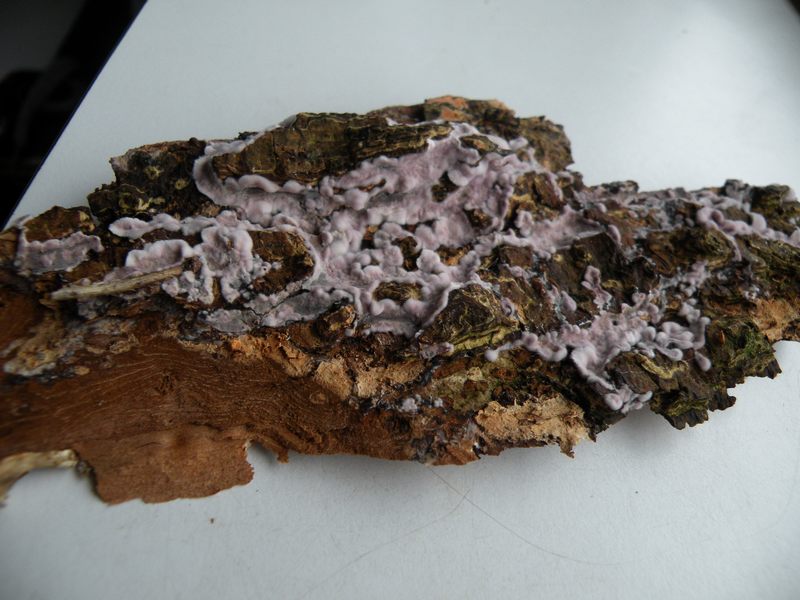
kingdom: Fungi
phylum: Basidiomycota
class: Agaricomycetes
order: Agaricales
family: Cyphellaceae
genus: Chondrostereum
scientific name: Chondrostereum purpureum
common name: purpurlædersvamp
